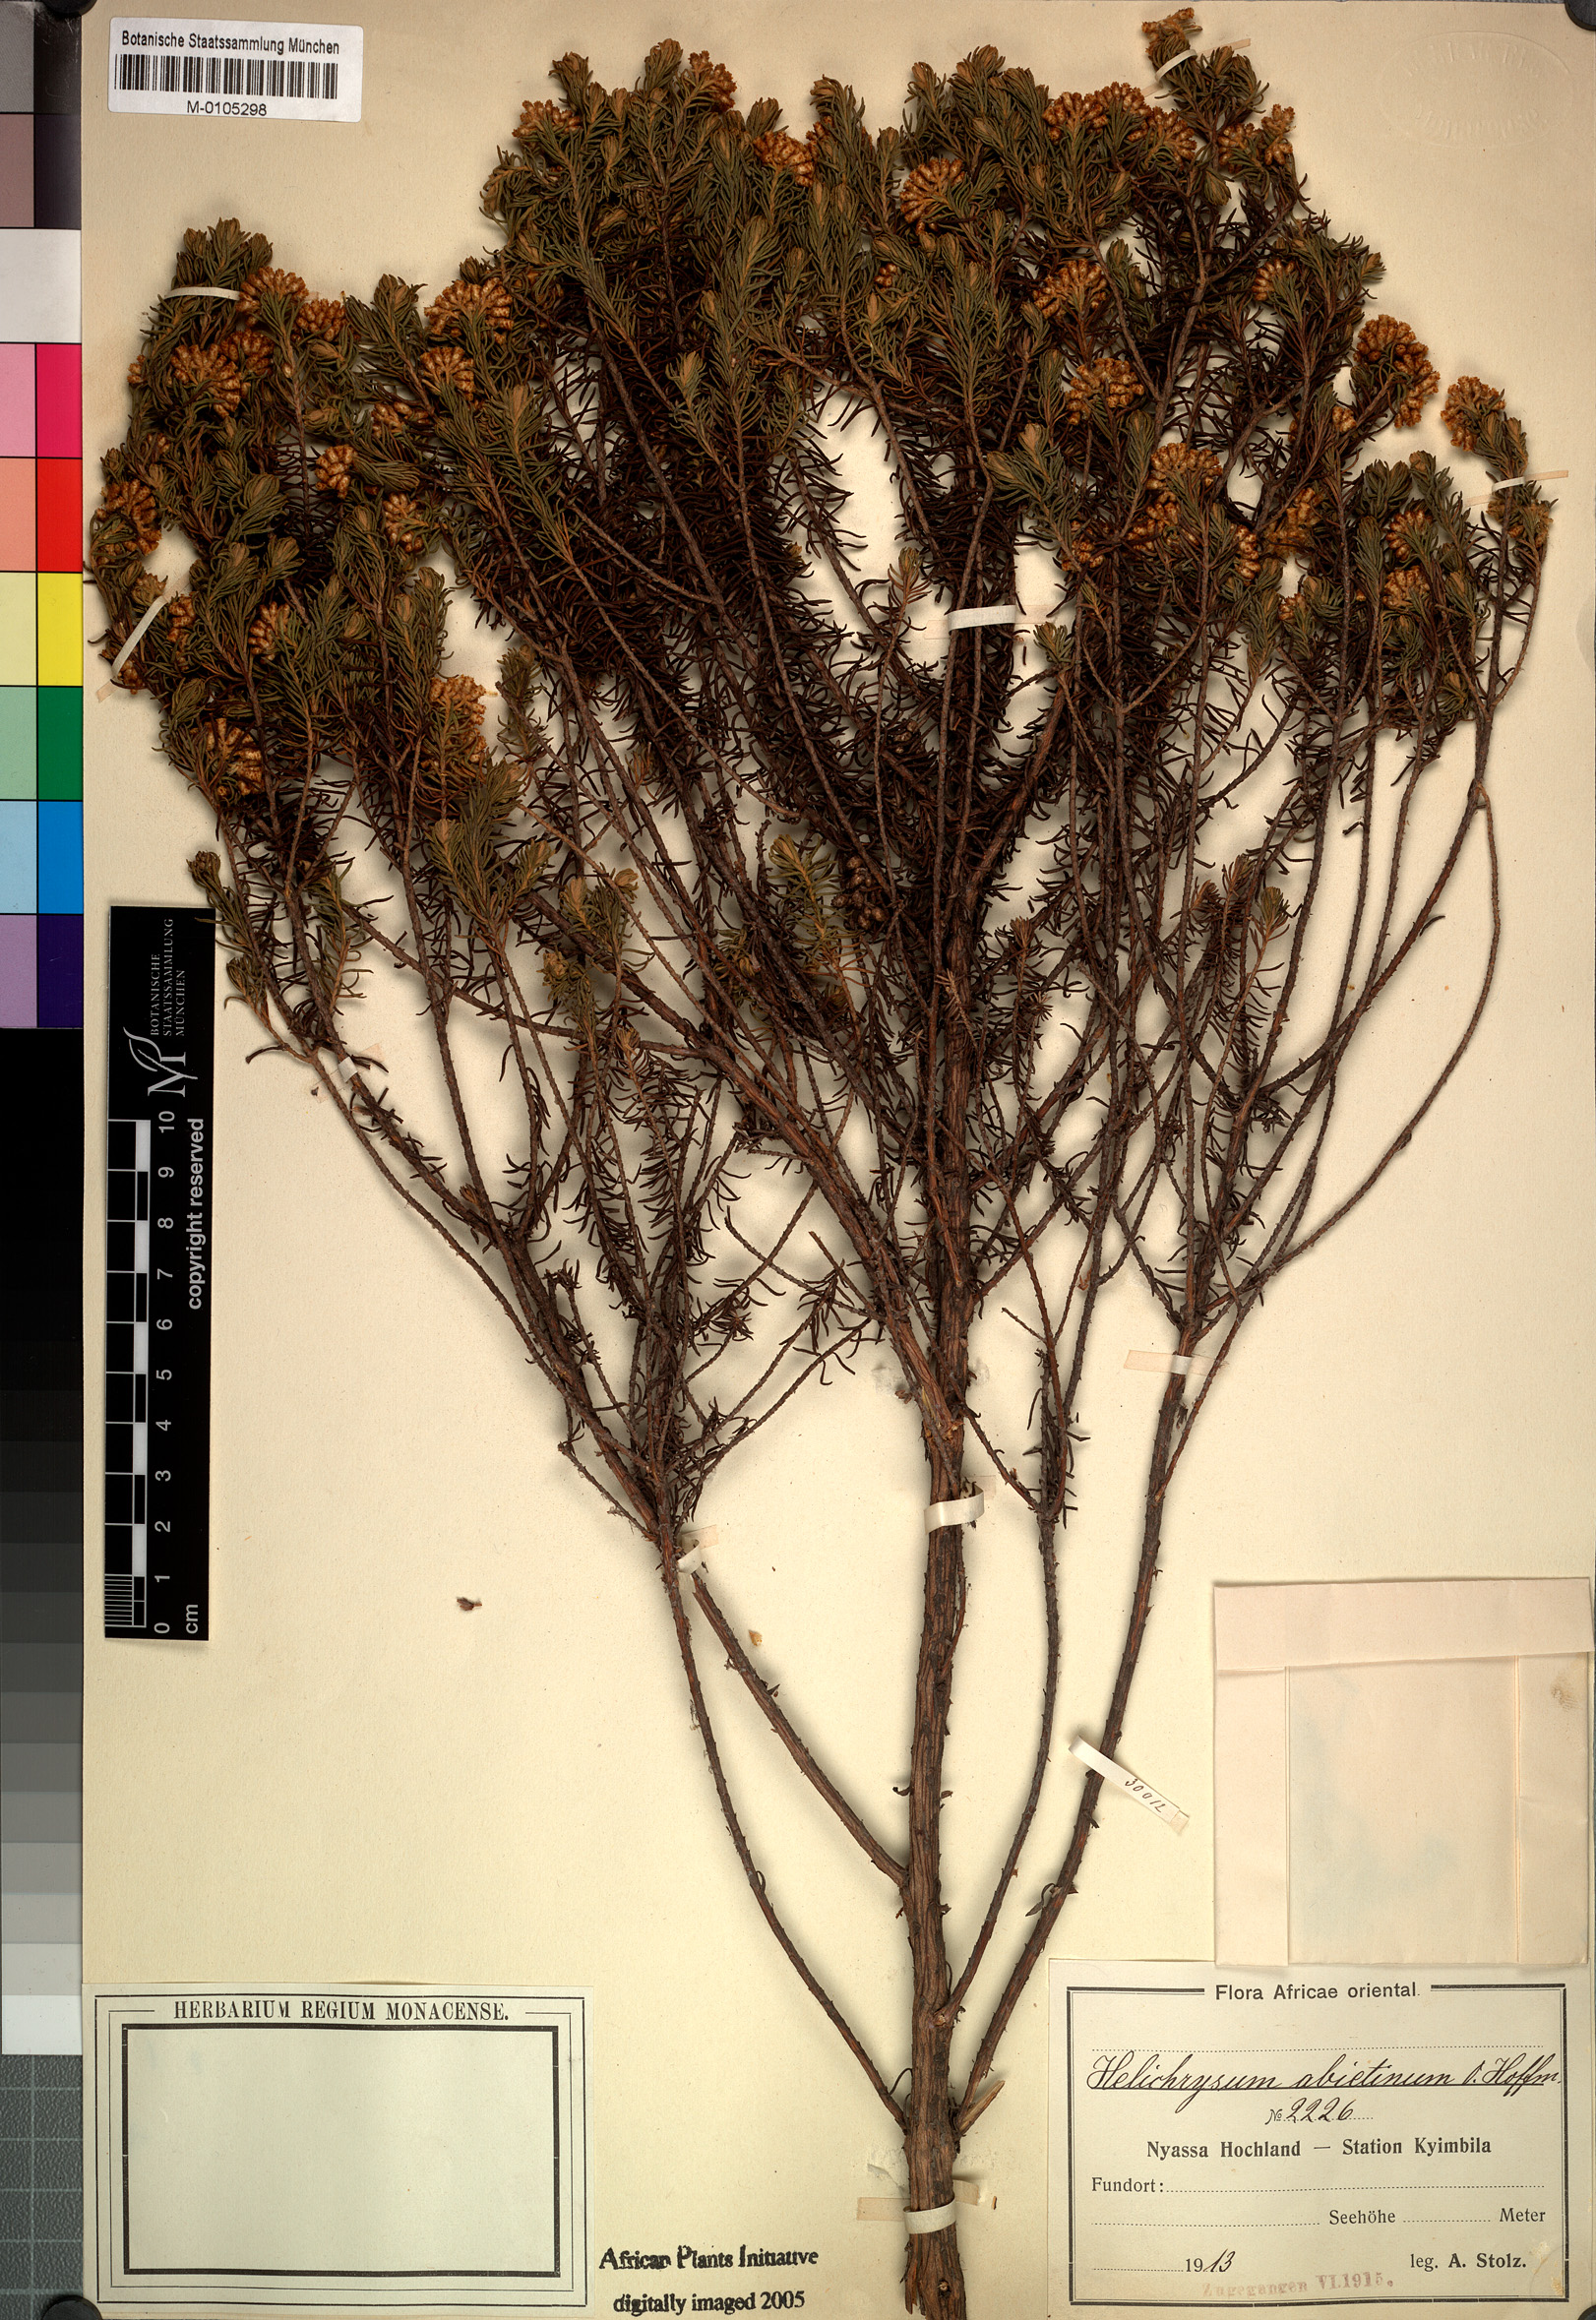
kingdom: Plantae
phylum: Tracheophyta
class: Magnoliopsida
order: Asterales
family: Asteraceae
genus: Helichrysum
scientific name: Helichrysum abietinum
